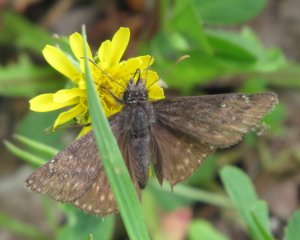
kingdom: Animalia
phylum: Arthropoda
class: Insecta
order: Lepidoptera
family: Hesperiidae
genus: Erynnis
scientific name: Erynnis icelus
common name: Dreamy Duskywing
